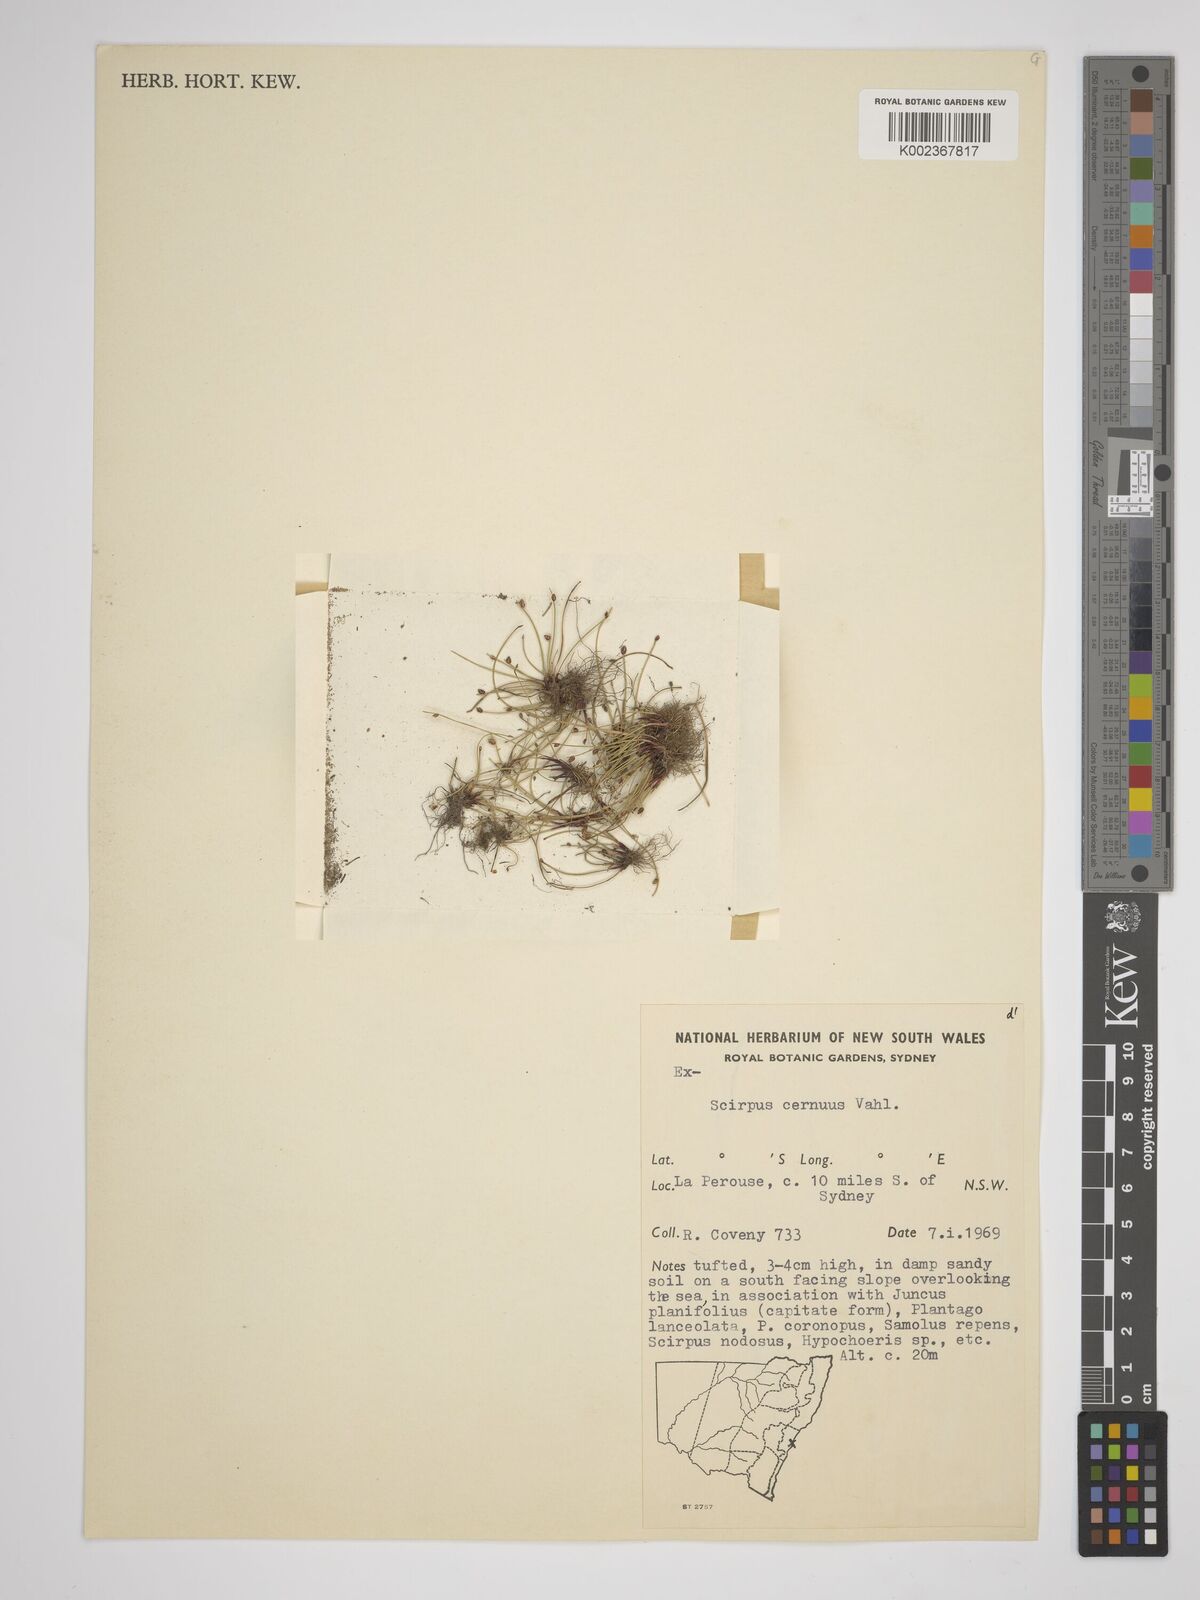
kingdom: Plantae
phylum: Tracheophyta
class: Liliopsida
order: Poales
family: Cyperaceae
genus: Isolepis
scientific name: Isolepis cernua
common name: Slender club-rush
